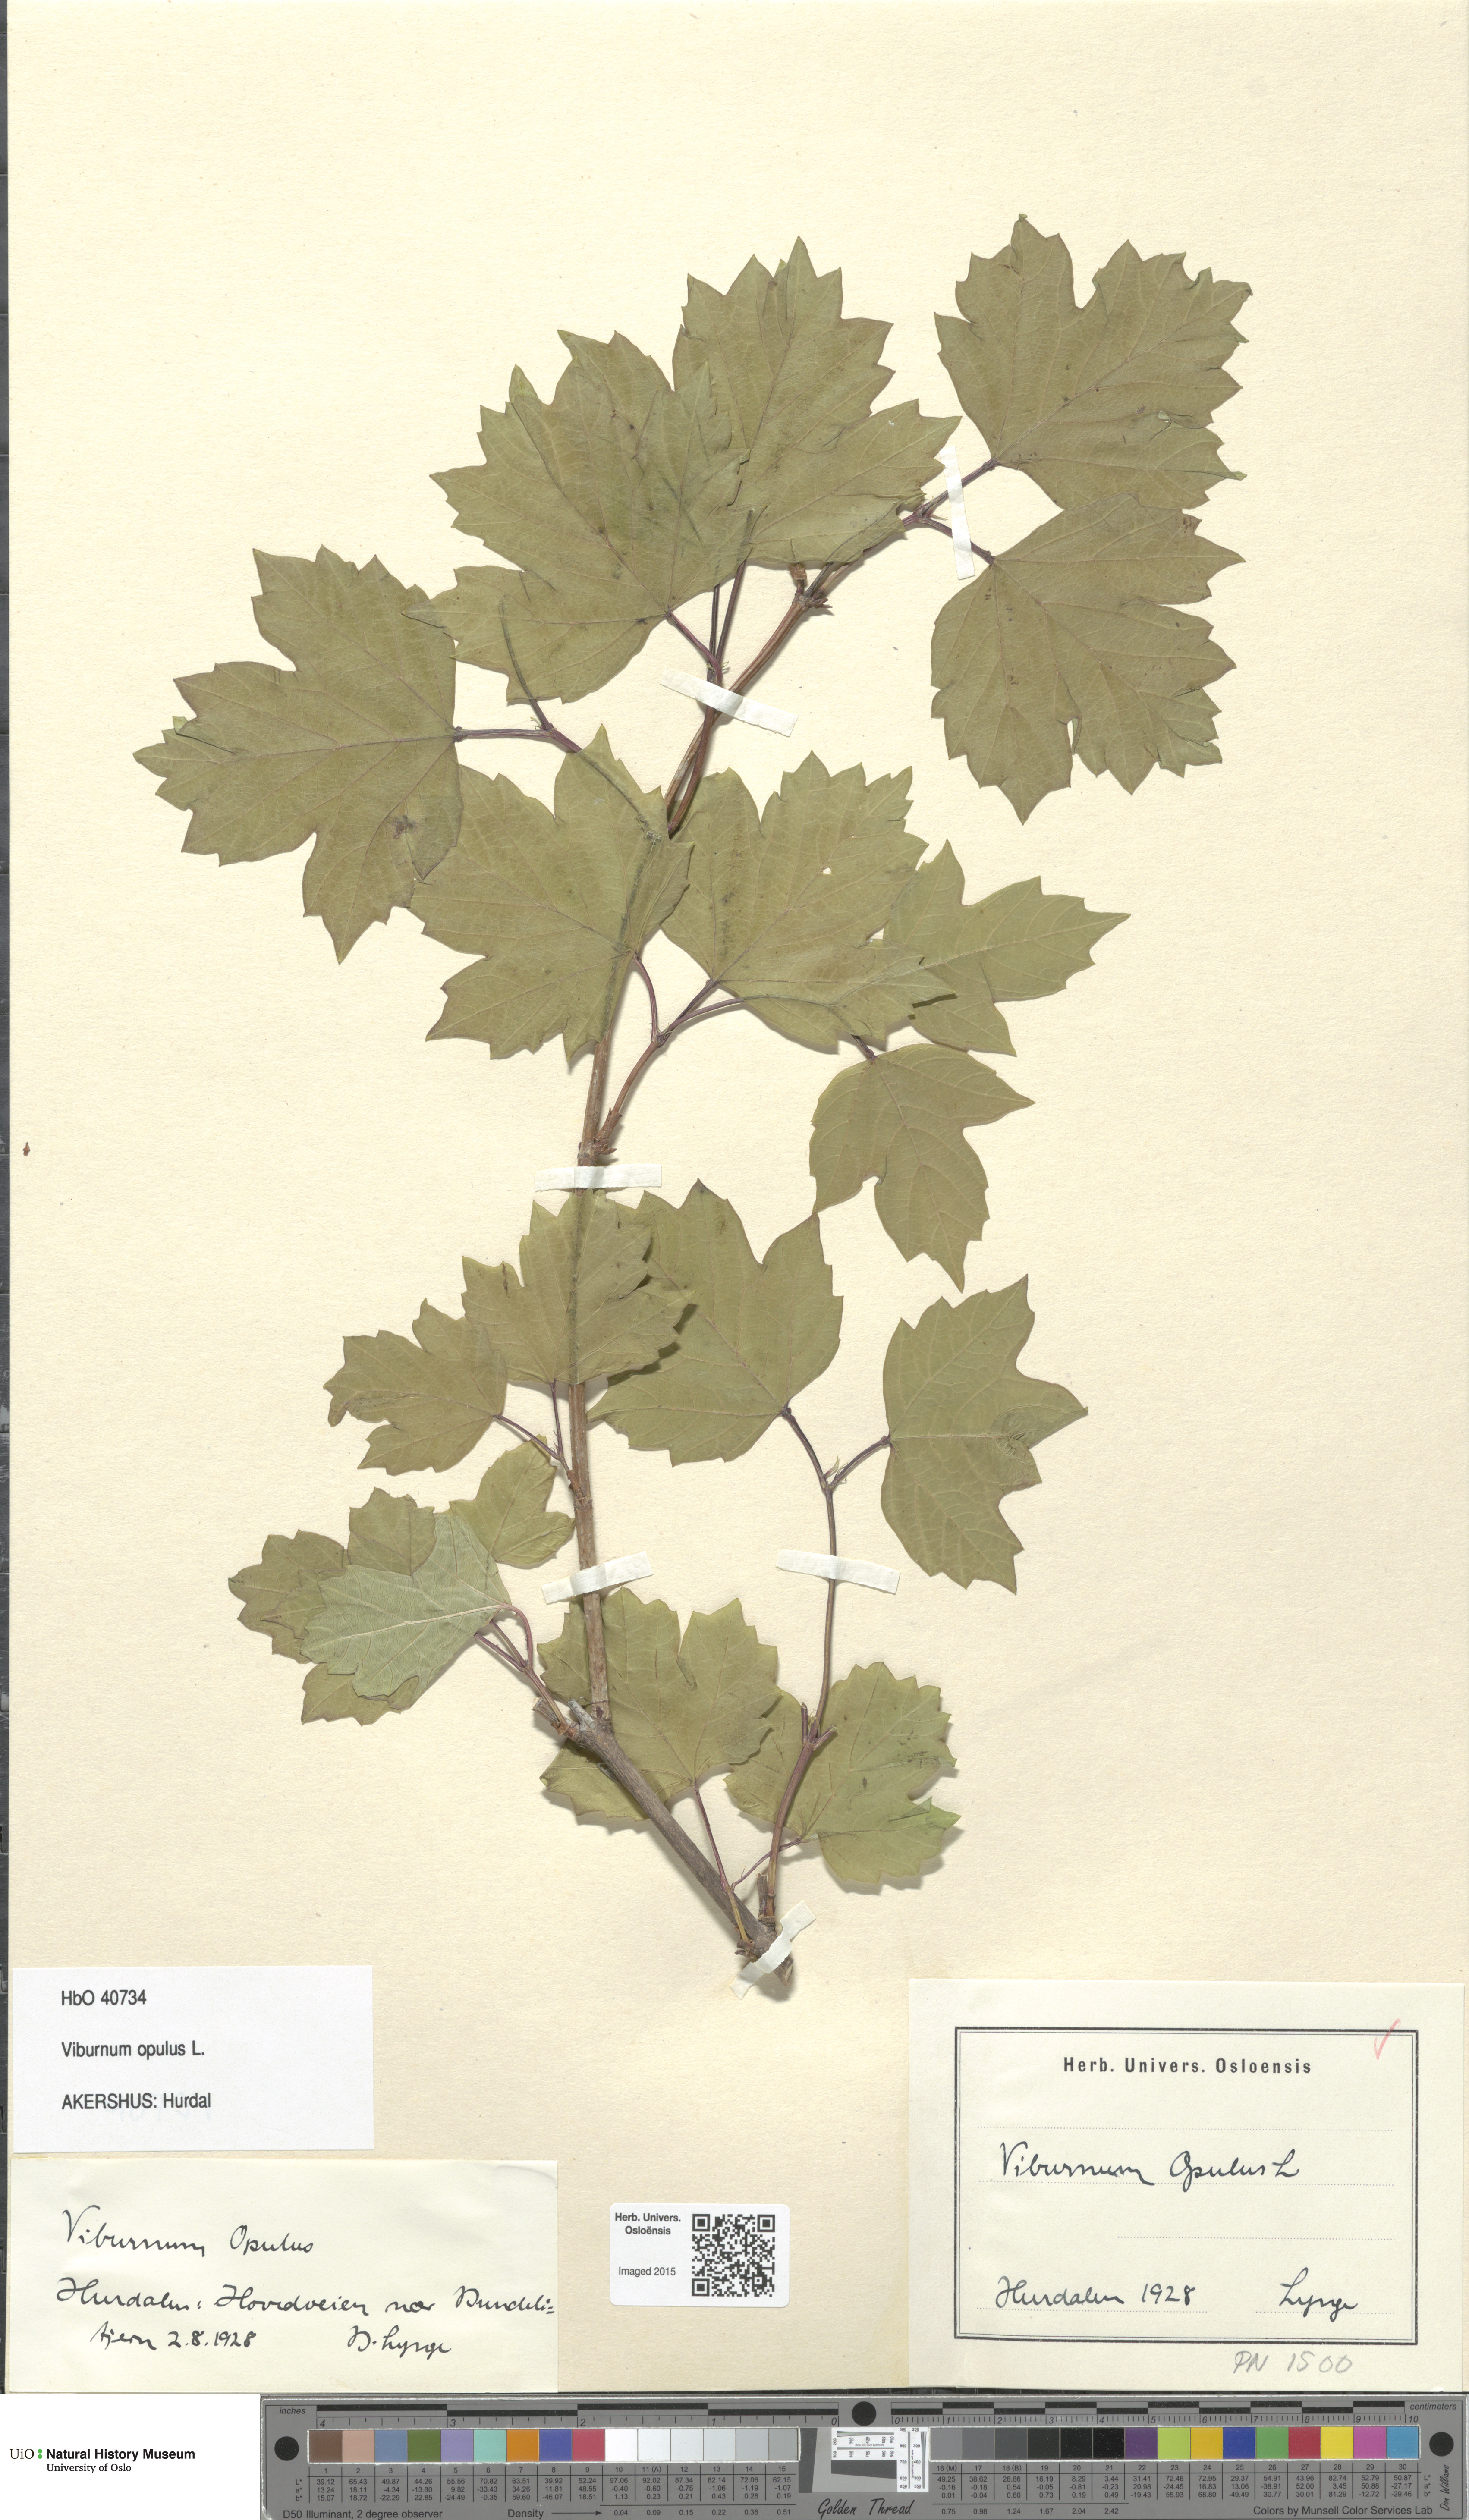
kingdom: Plantae
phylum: Tracheophyta
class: Magnoliopsida
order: Dipsacales
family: Viburnaceae
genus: Viburnum
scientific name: Viburnum opulus
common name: Guelder-rose
